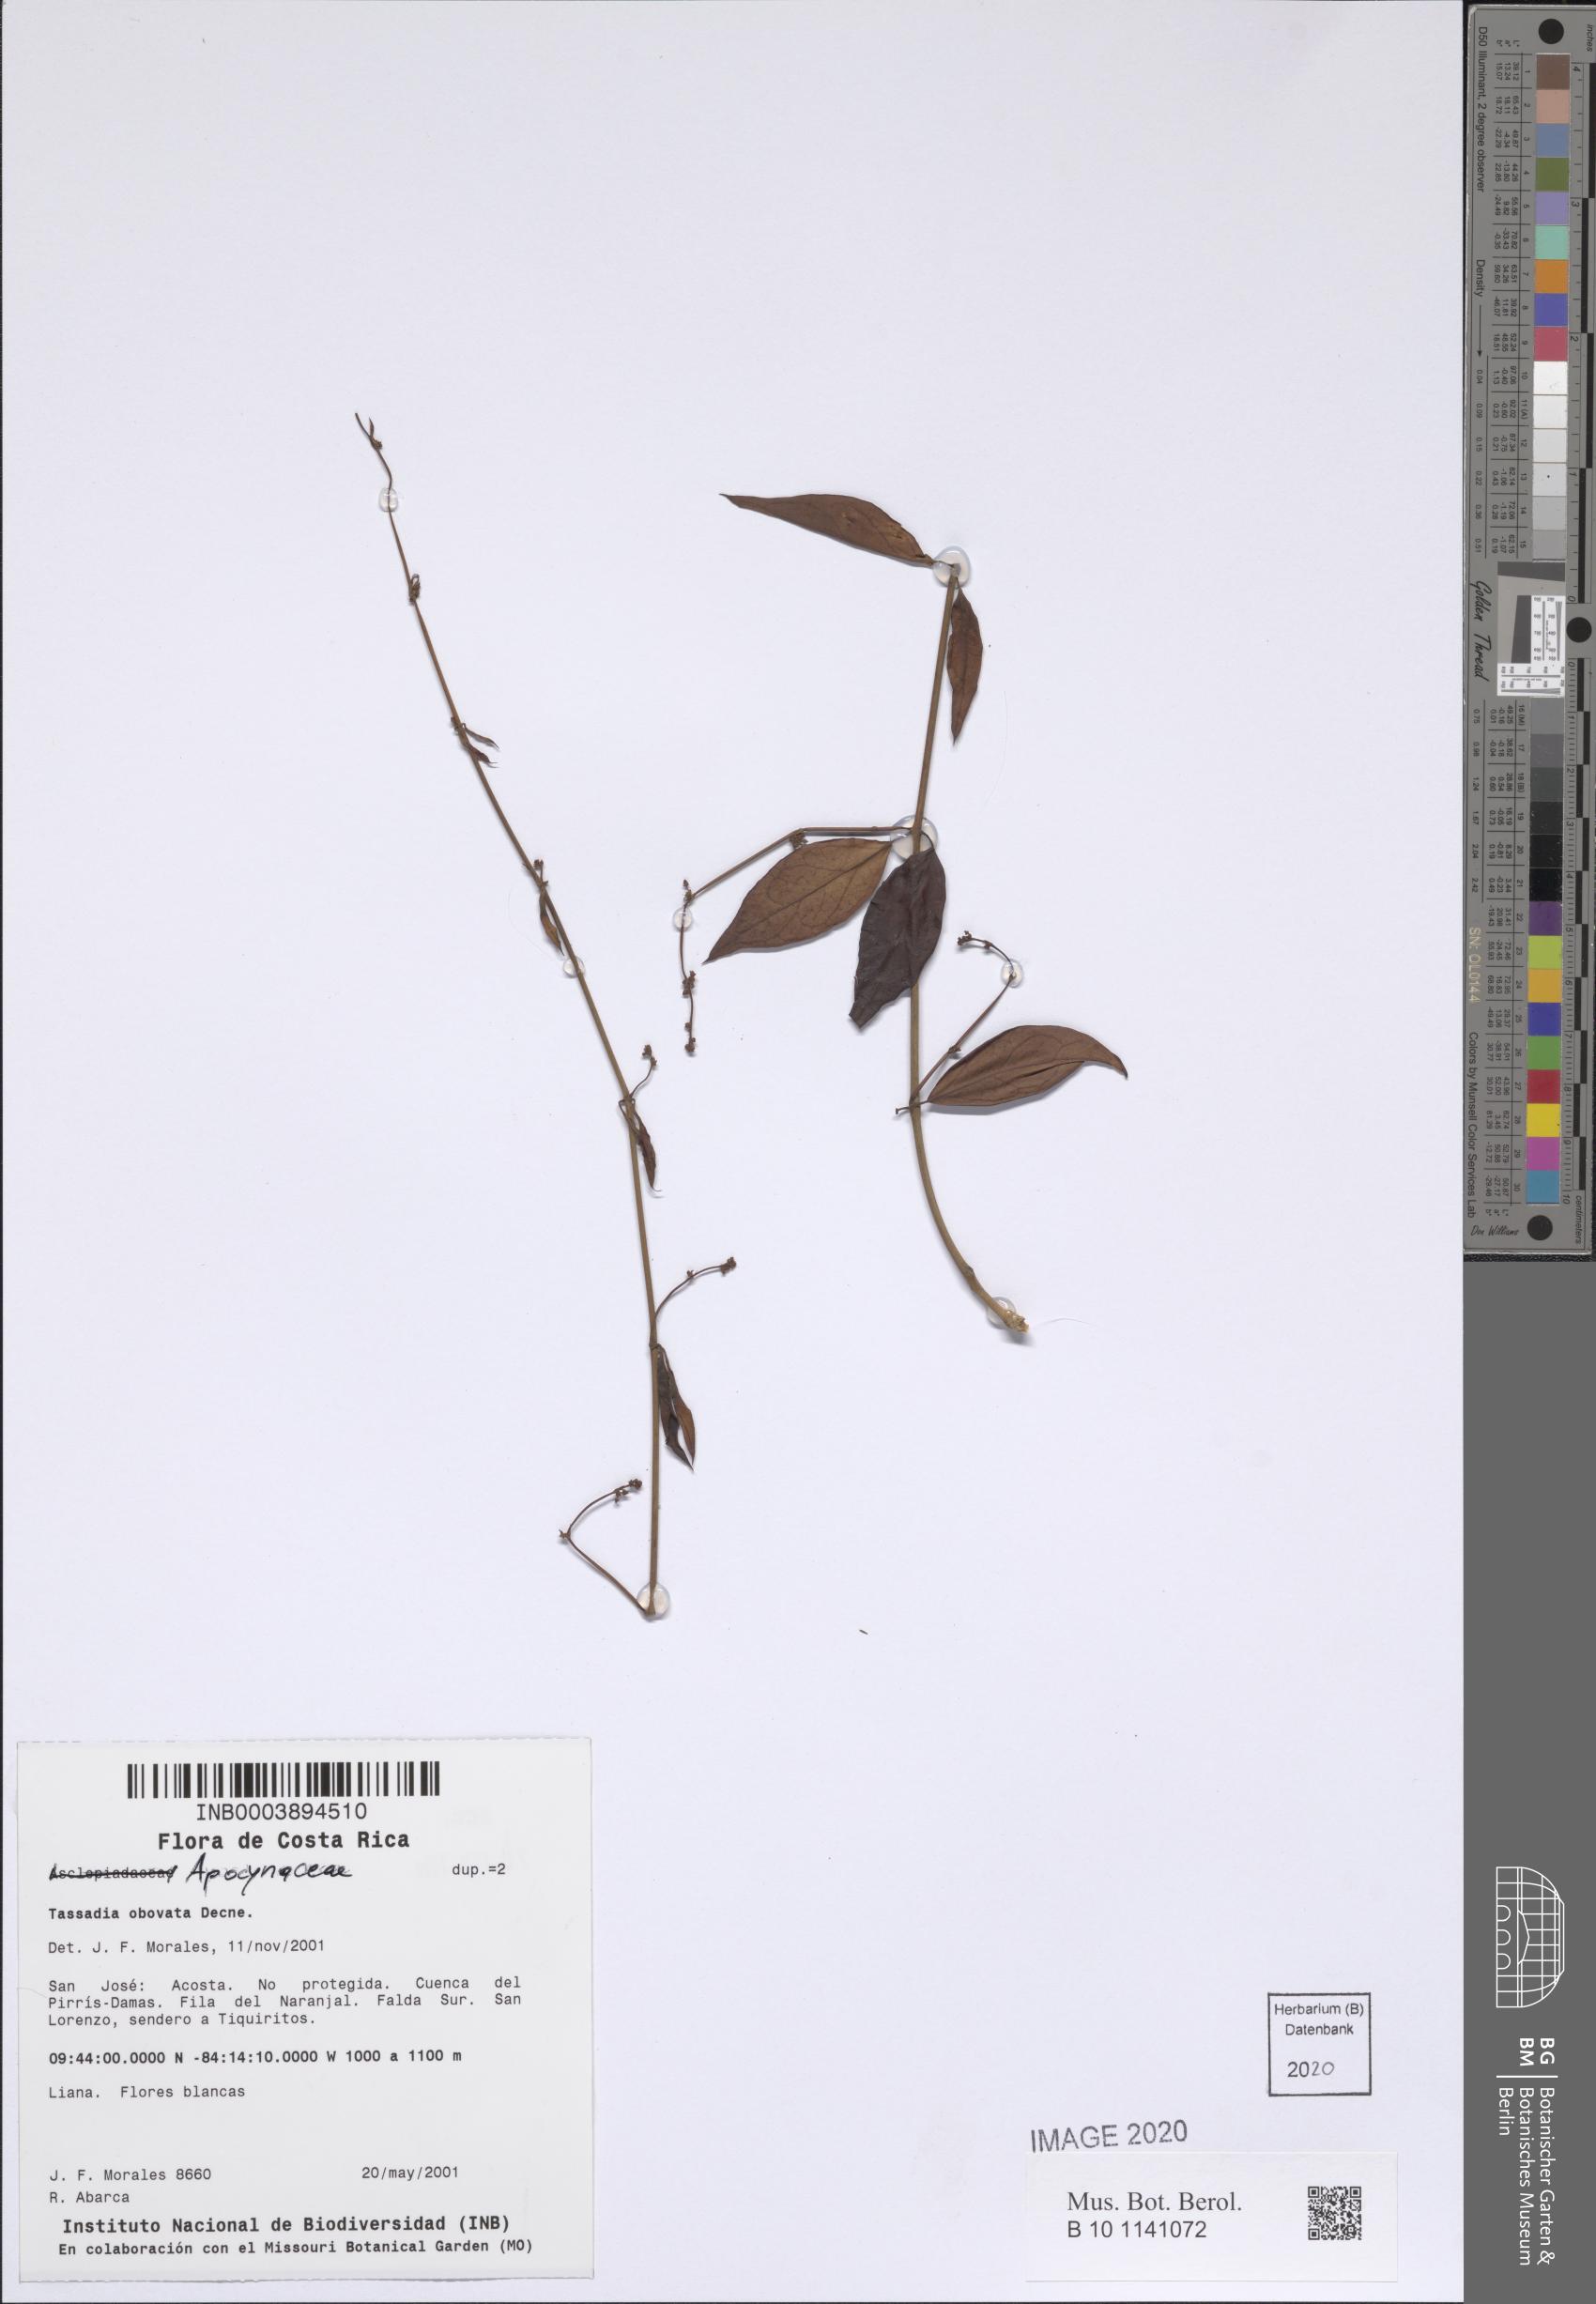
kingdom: Plantae
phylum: Tracheophyta
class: Magnoliopsida
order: Gentianales
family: Apocynaceae
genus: Tassadia
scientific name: Tassadia obovata
